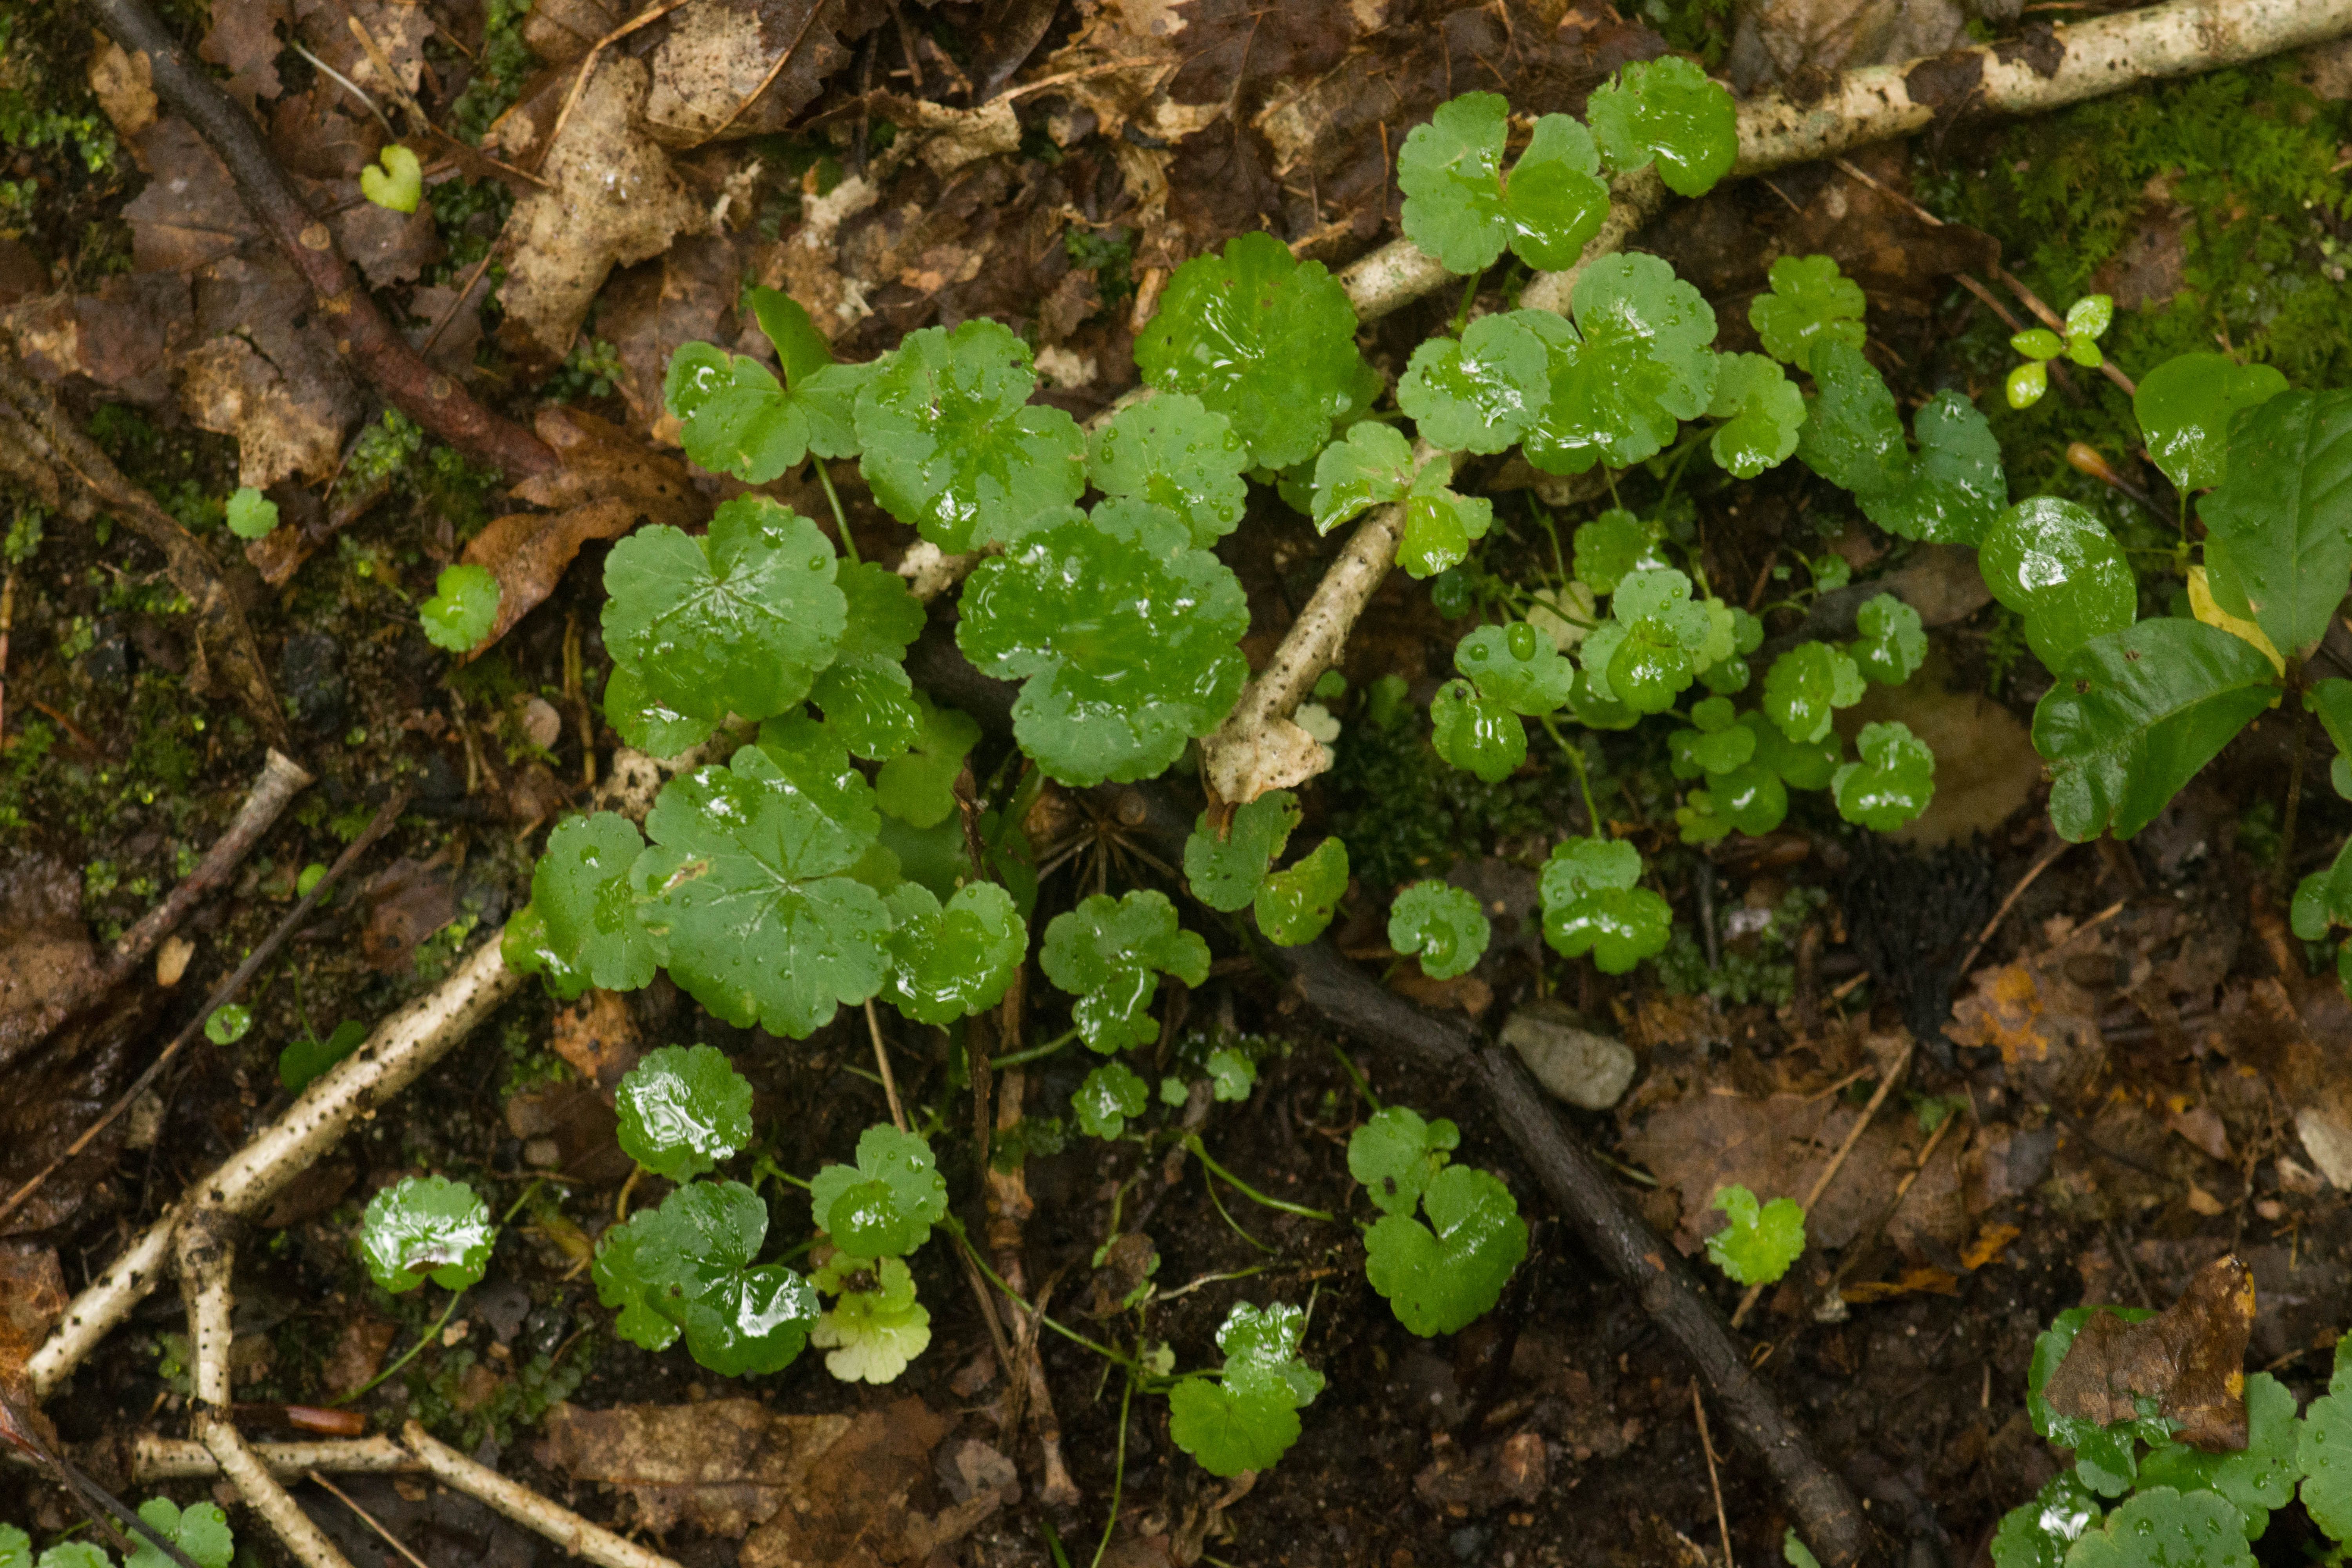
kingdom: Plantae
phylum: Tracheophyta
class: Magnoliopsida
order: Apiales
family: Araliaceae
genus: Hydrocotyle
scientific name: Hydrocotyle americana
